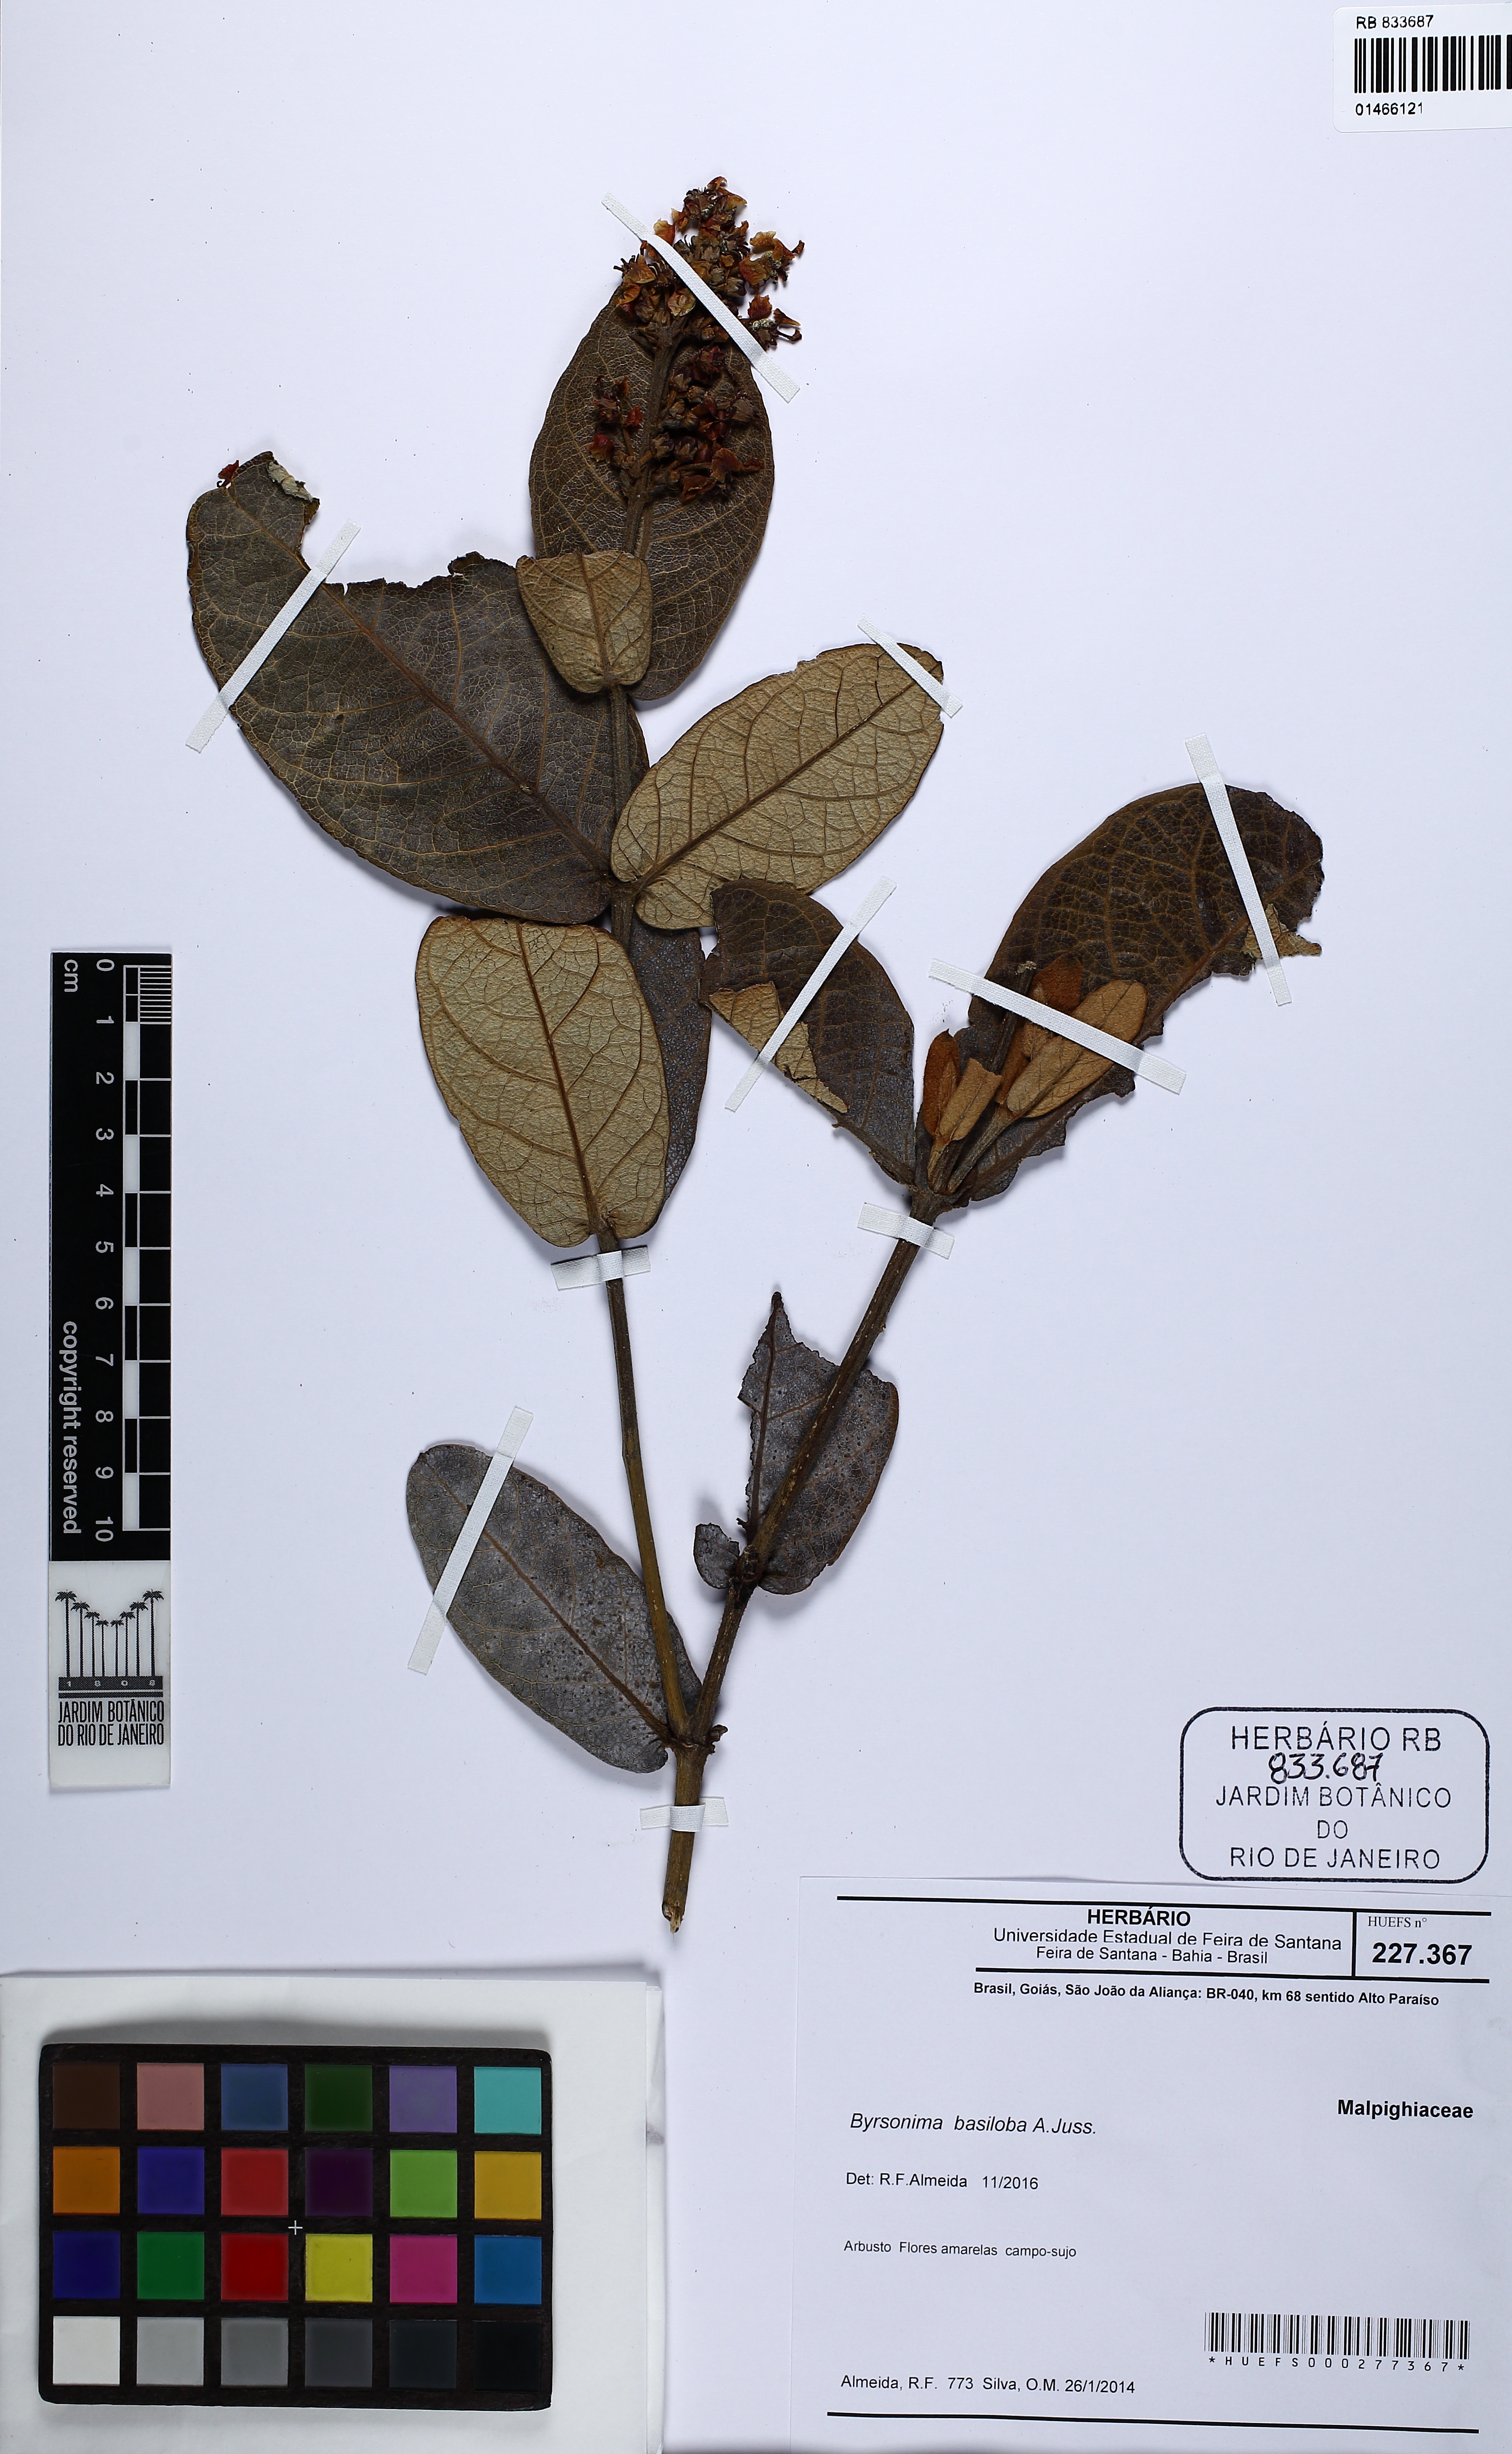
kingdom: Plantae
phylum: Tracheophyta
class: Magnoliopsida
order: Malpighiales
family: Malpighiaceae
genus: Byrsonima
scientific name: Byrsonima basiloba
